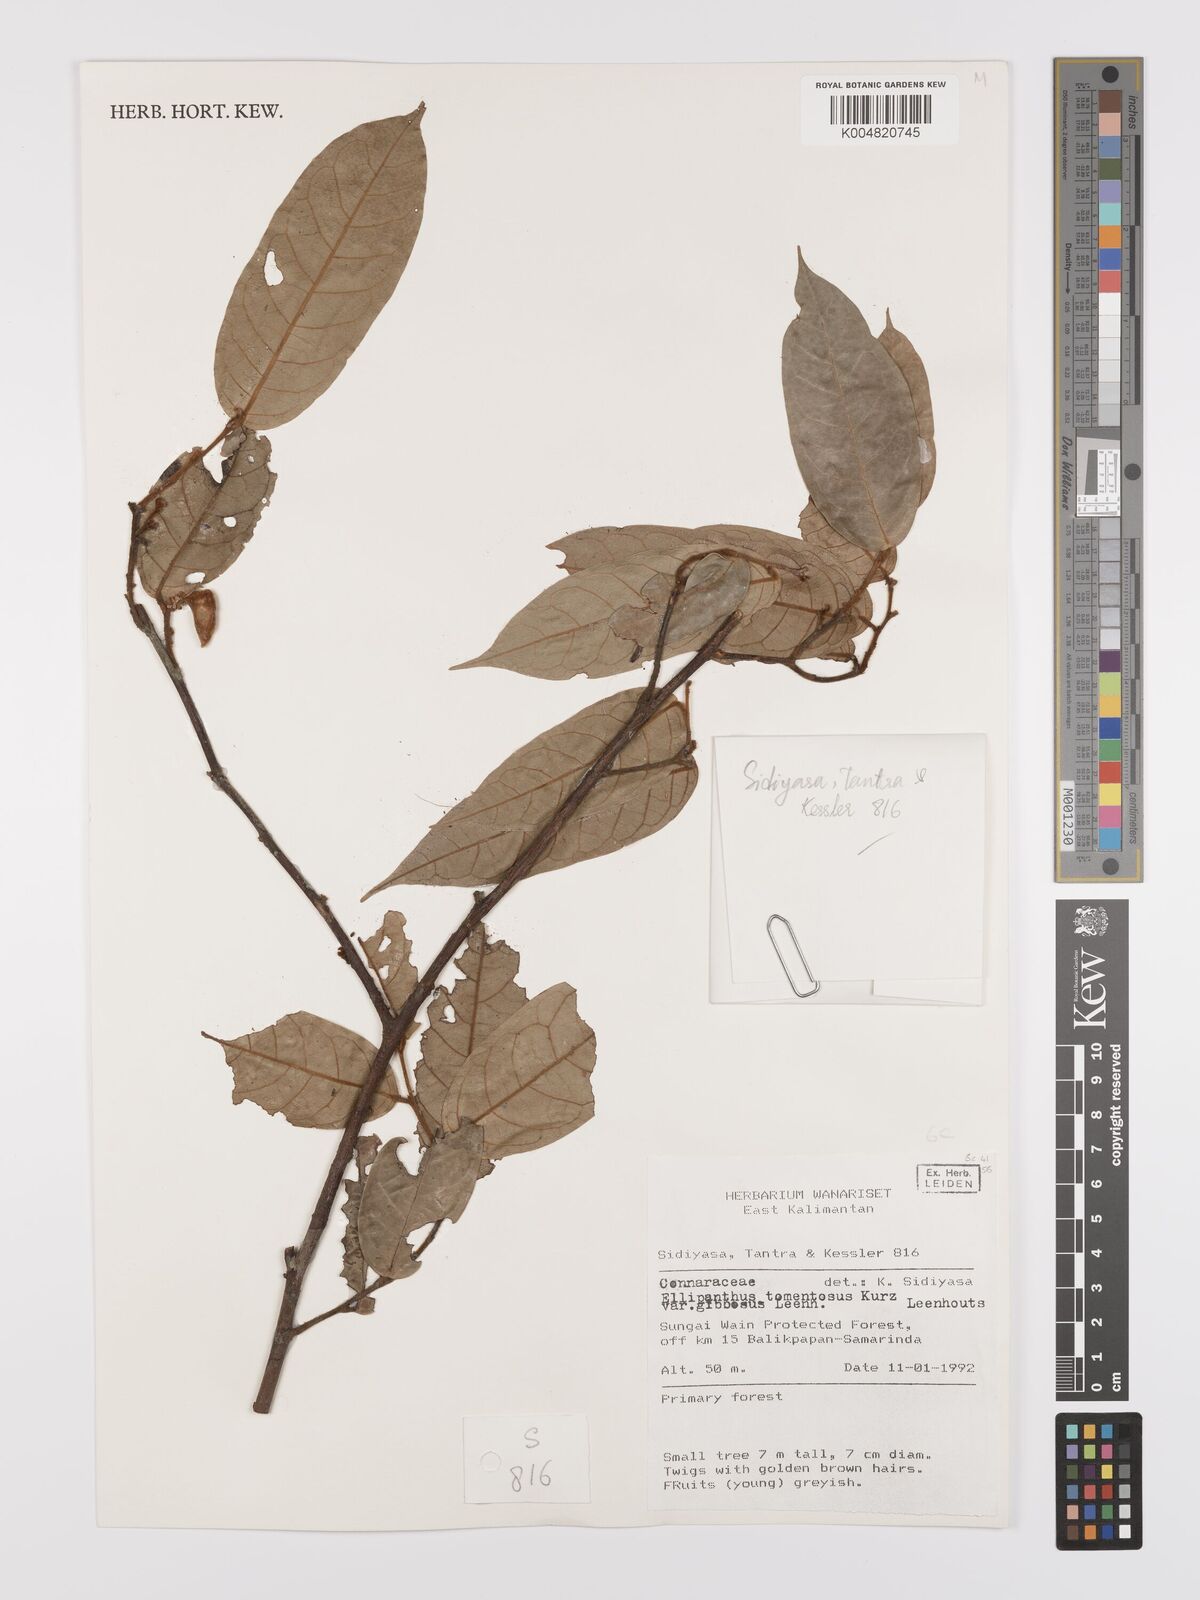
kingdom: Plantae
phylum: Tracheophyta
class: Magnoliopsida
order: Oxalidales
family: Connaraceae
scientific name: Connaraceae
